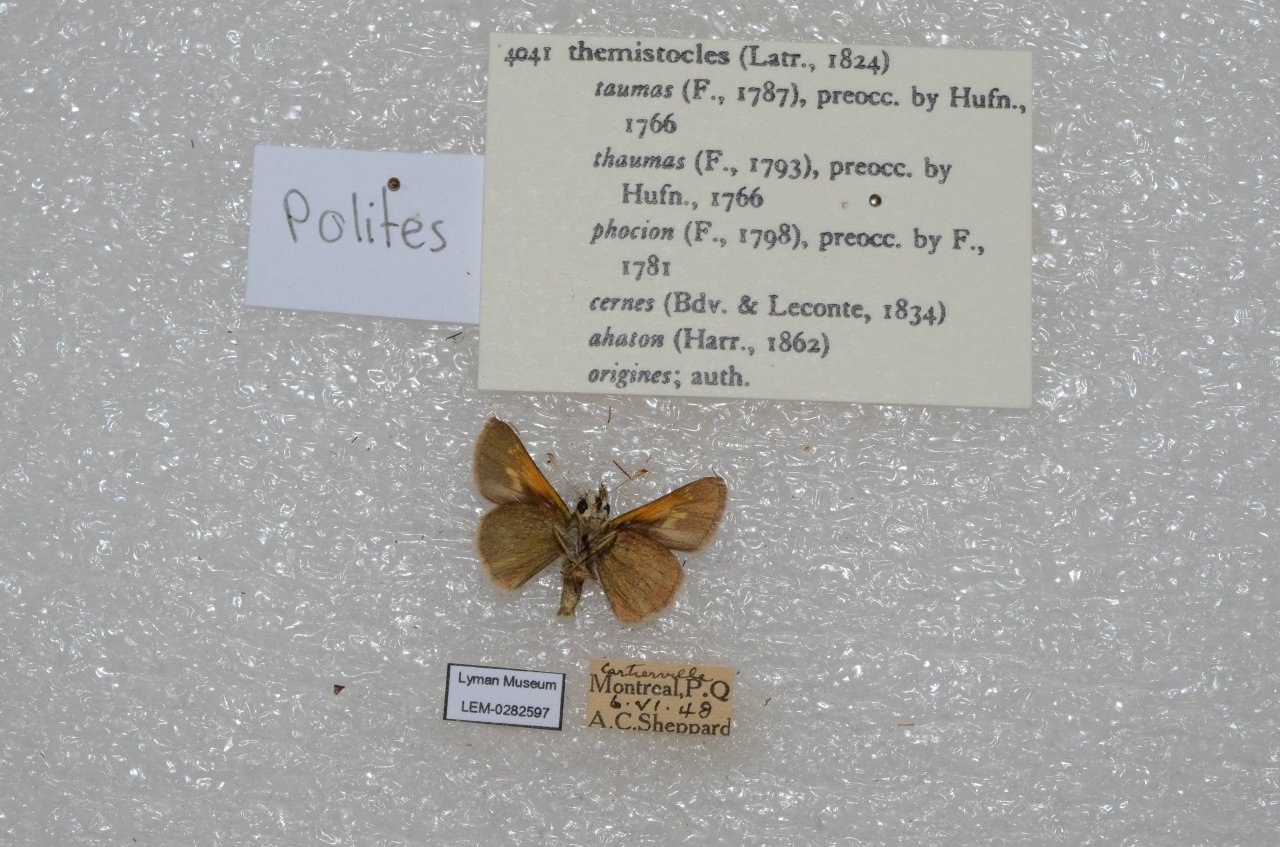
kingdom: Animalia
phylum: Arthropoda
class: Insecta
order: Lepidoptera
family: Hesperiidae
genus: Polites
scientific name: Polites themistocles
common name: Tawny-edged Skipper
